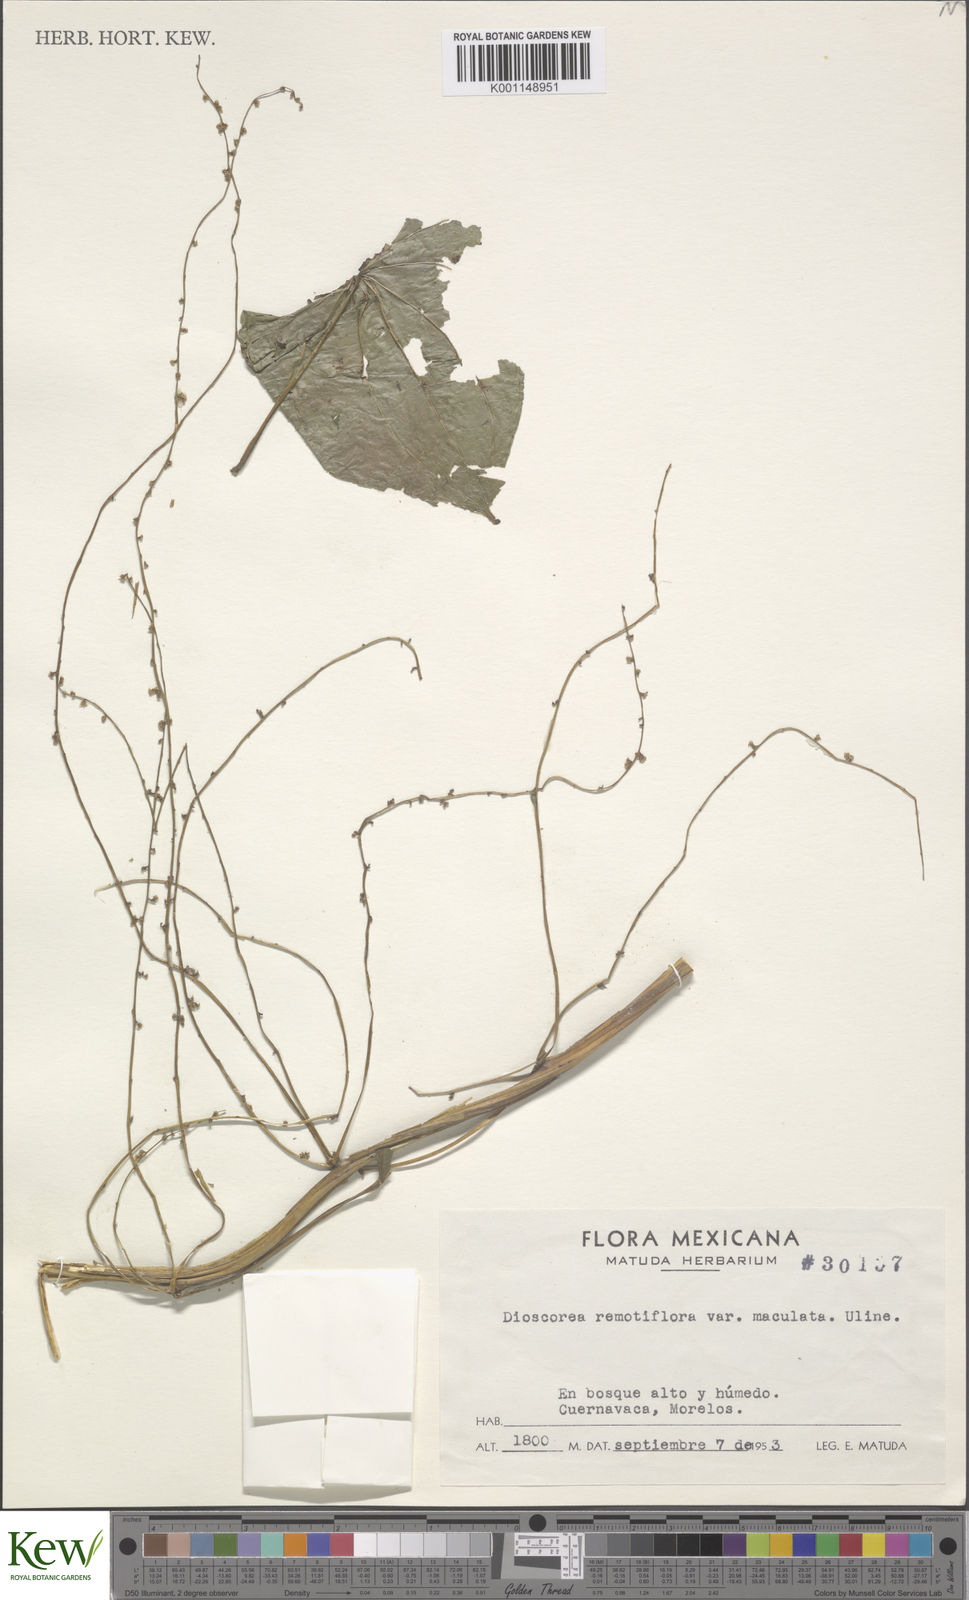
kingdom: Plantae
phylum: Tracheophyta
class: Liliopsida
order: Dioscoreales
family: Dioscoreaceae
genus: Dioscorea
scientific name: Dioscorea remotiflora
